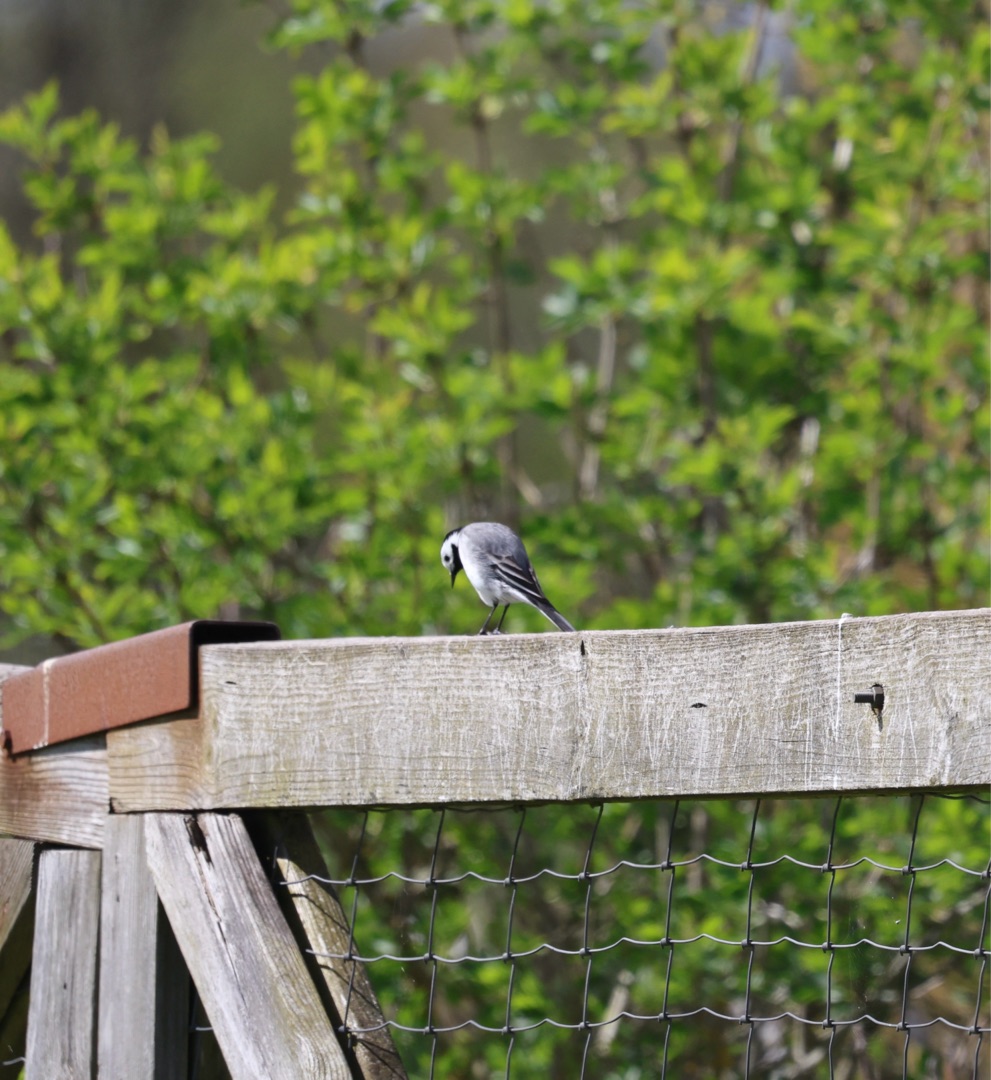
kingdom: Animalia
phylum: Chordata
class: Aves
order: Passeriformes
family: Motacillidae
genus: Motacilla
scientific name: Motacilla alba
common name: Hvid vipstjert
